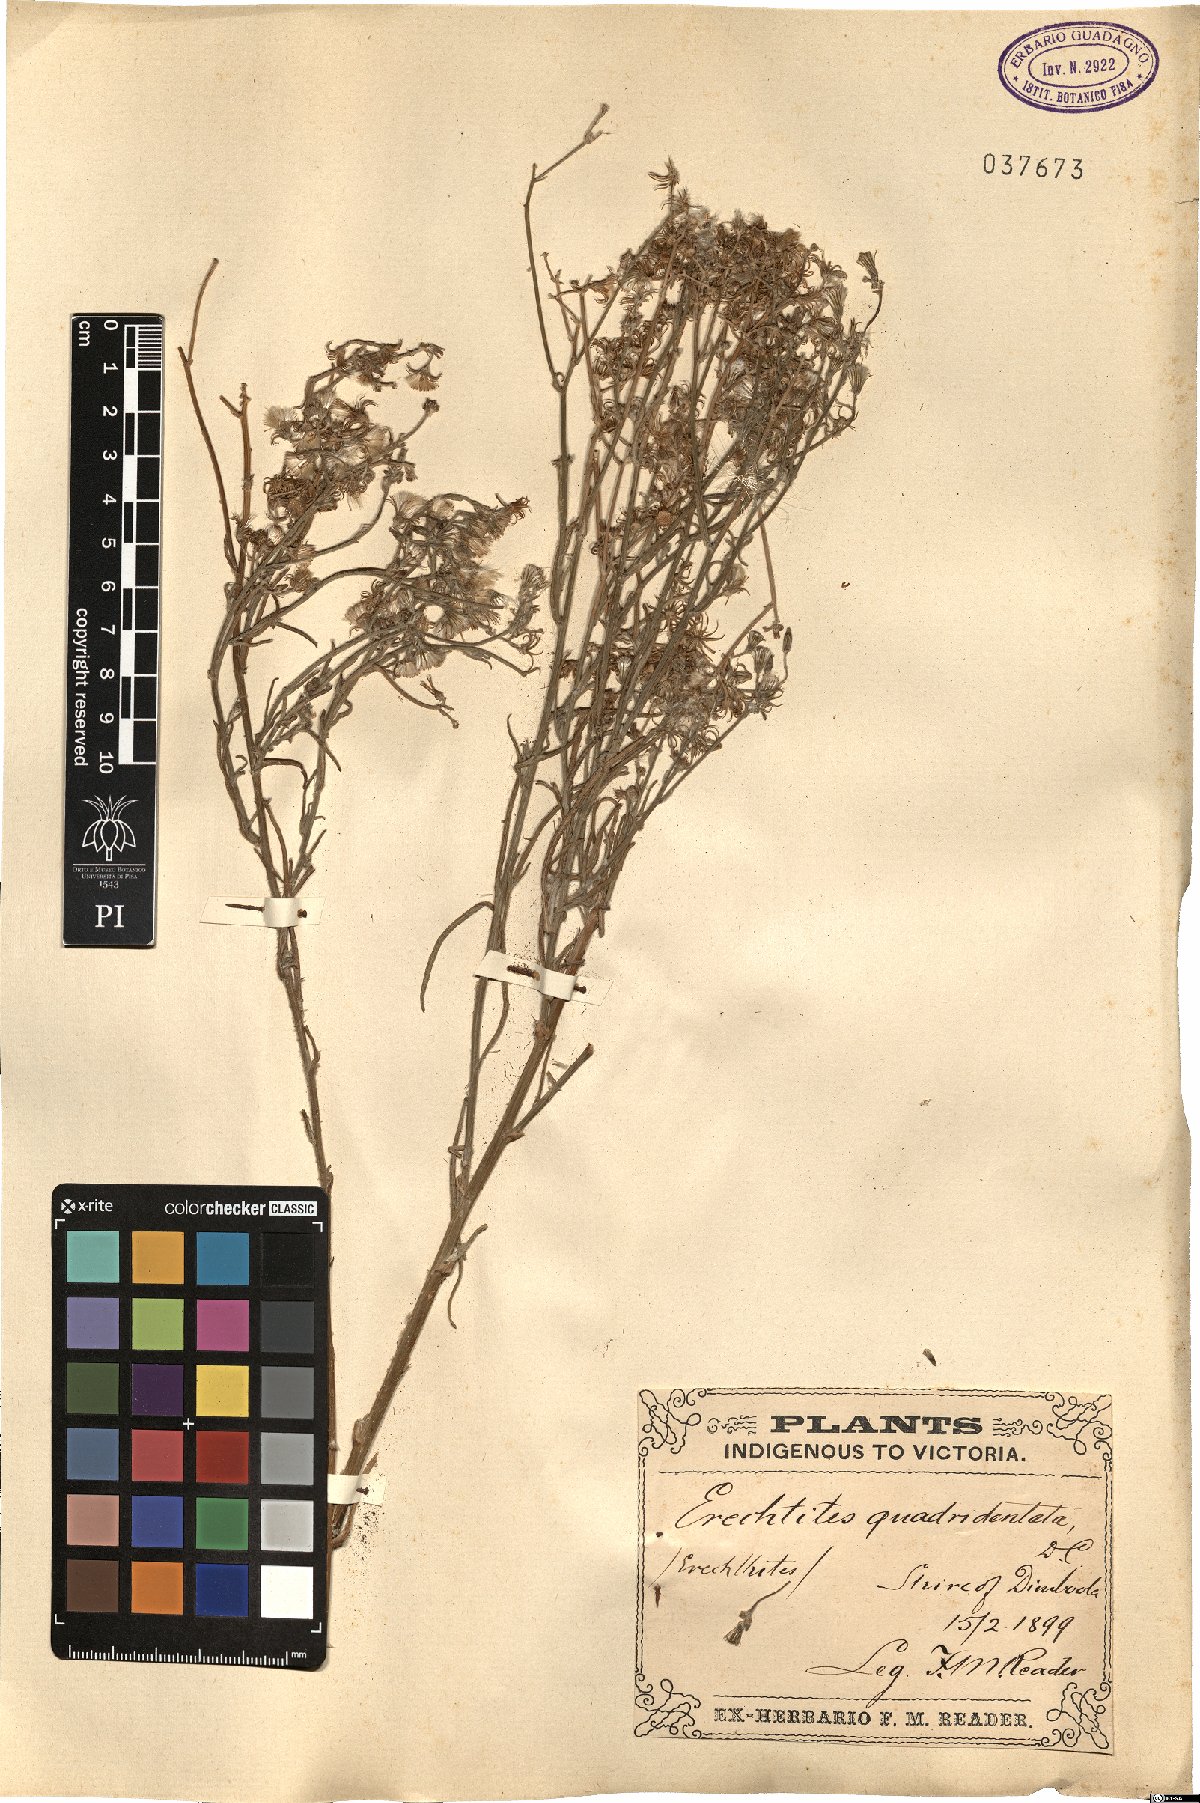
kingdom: Plantae
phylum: Tracheophyta
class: Magnoliopsida
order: Asterales
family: Asteraceae
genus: Senecio
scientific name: Senecio quadridentatus
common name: Cotton fireweed
